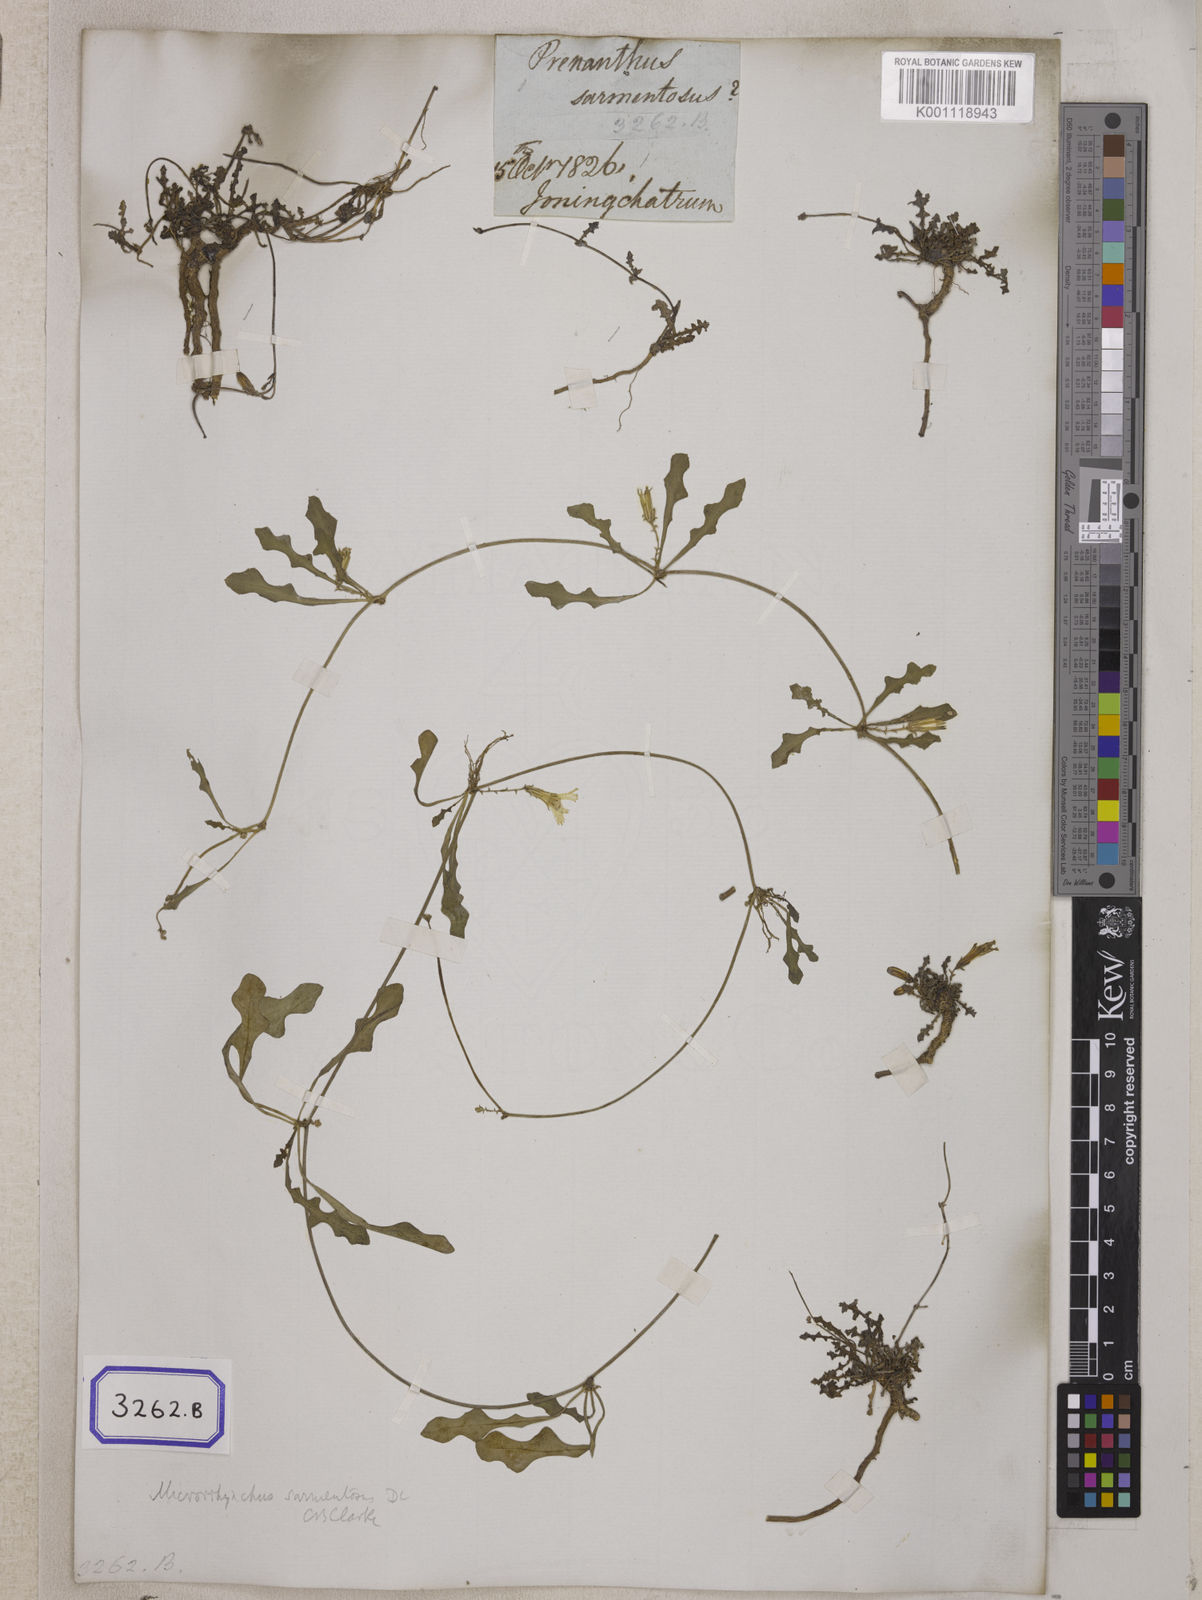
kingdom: Plantae
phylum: Tracheophyta
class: Magnoliopsida
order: Asterales
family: Asteraceae
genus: Emilia
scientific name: Emilia sonchifolia
